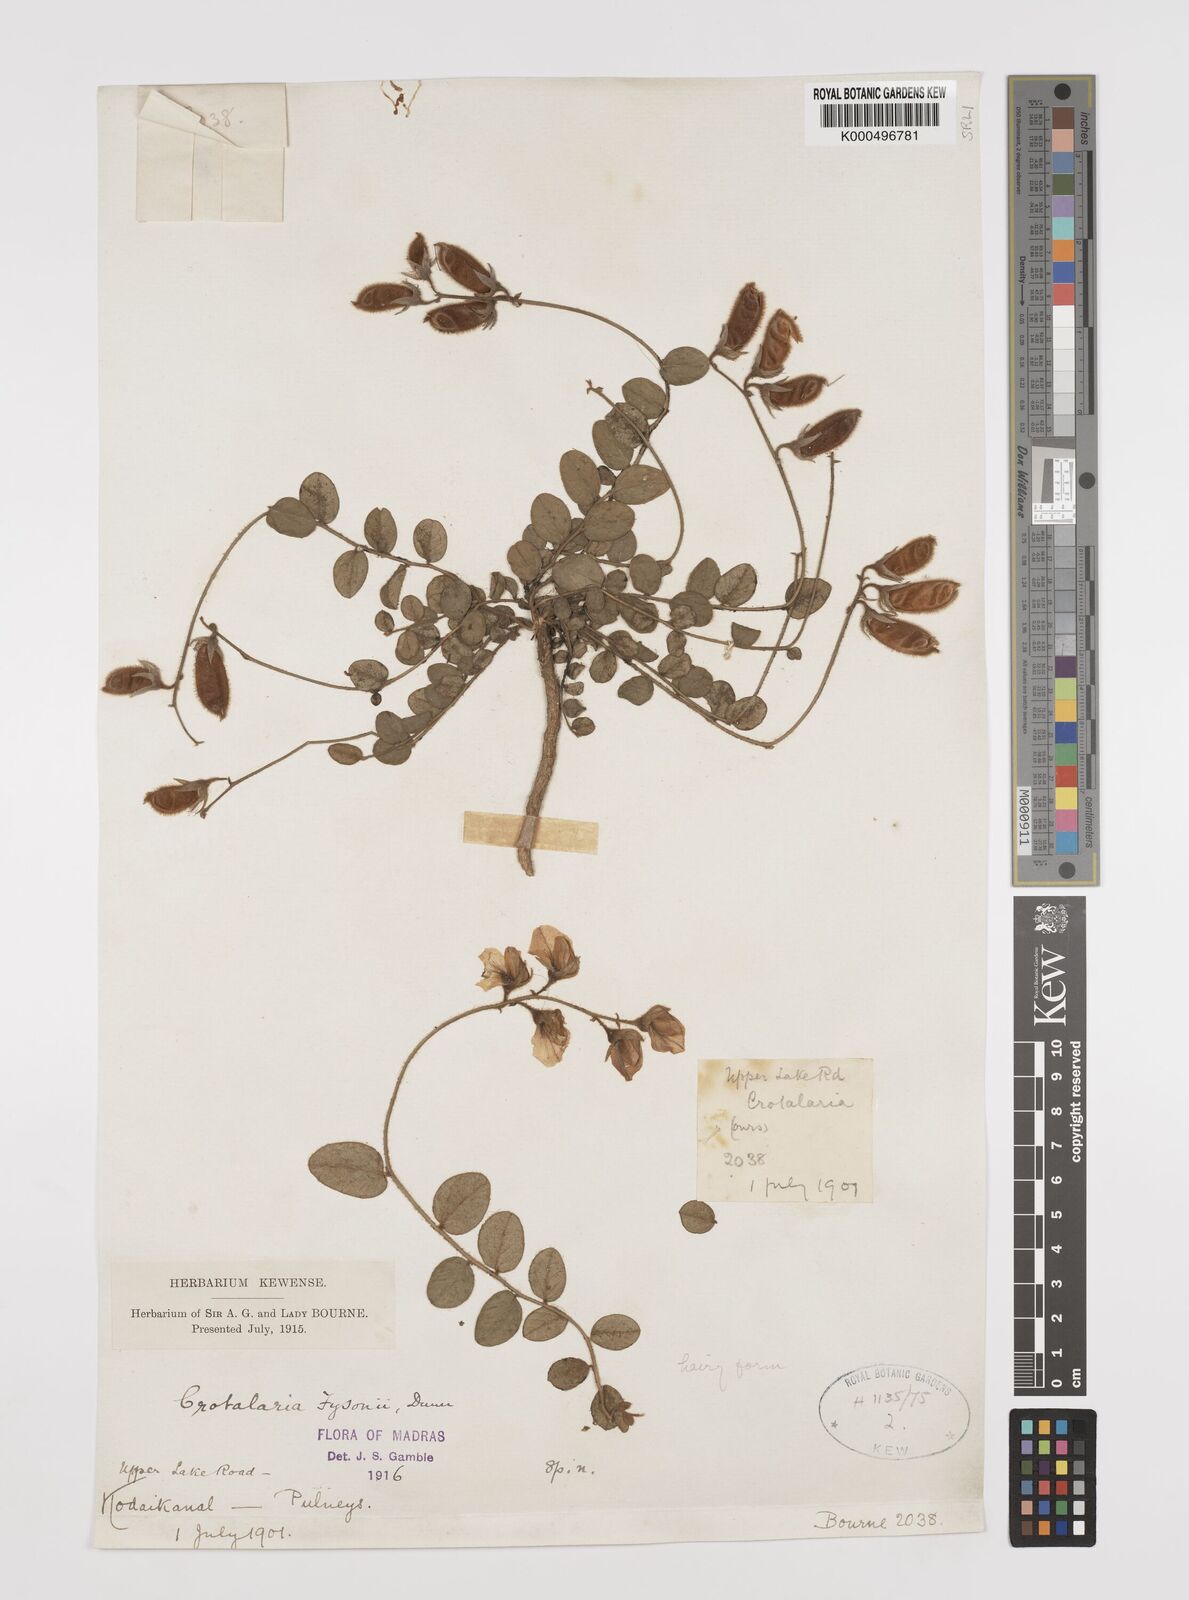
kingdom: Plantae
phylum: Tracheophyta
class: Magnoliopsida
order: Fabales
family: Fabaceae
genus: Crotalaria
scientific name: Crotalaria fysonii
